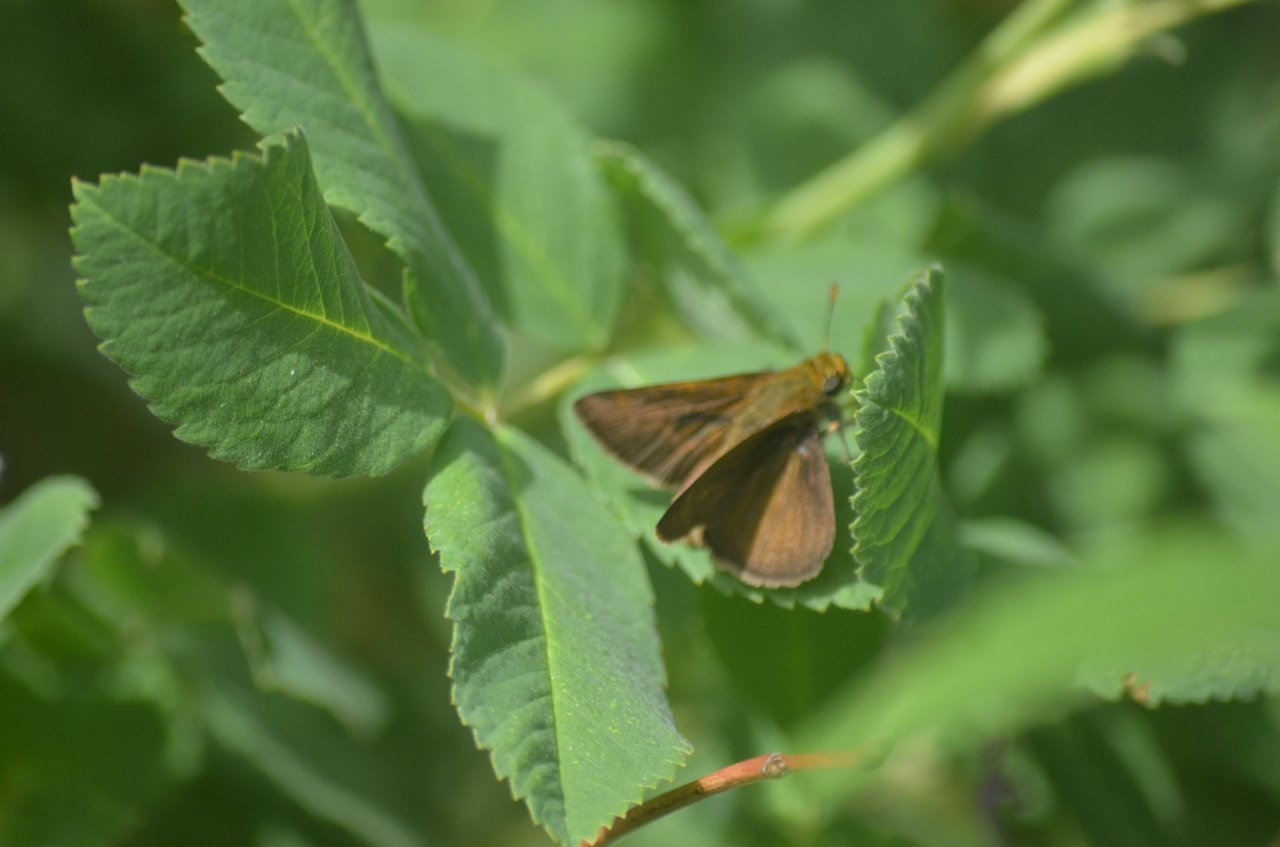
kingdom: Animalia
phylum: Arthropoda
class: Insecta
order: Lepidoptera
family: Hesperiidae
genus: Euphyes
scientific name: Euphyes vestris
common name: Dun Skipper
